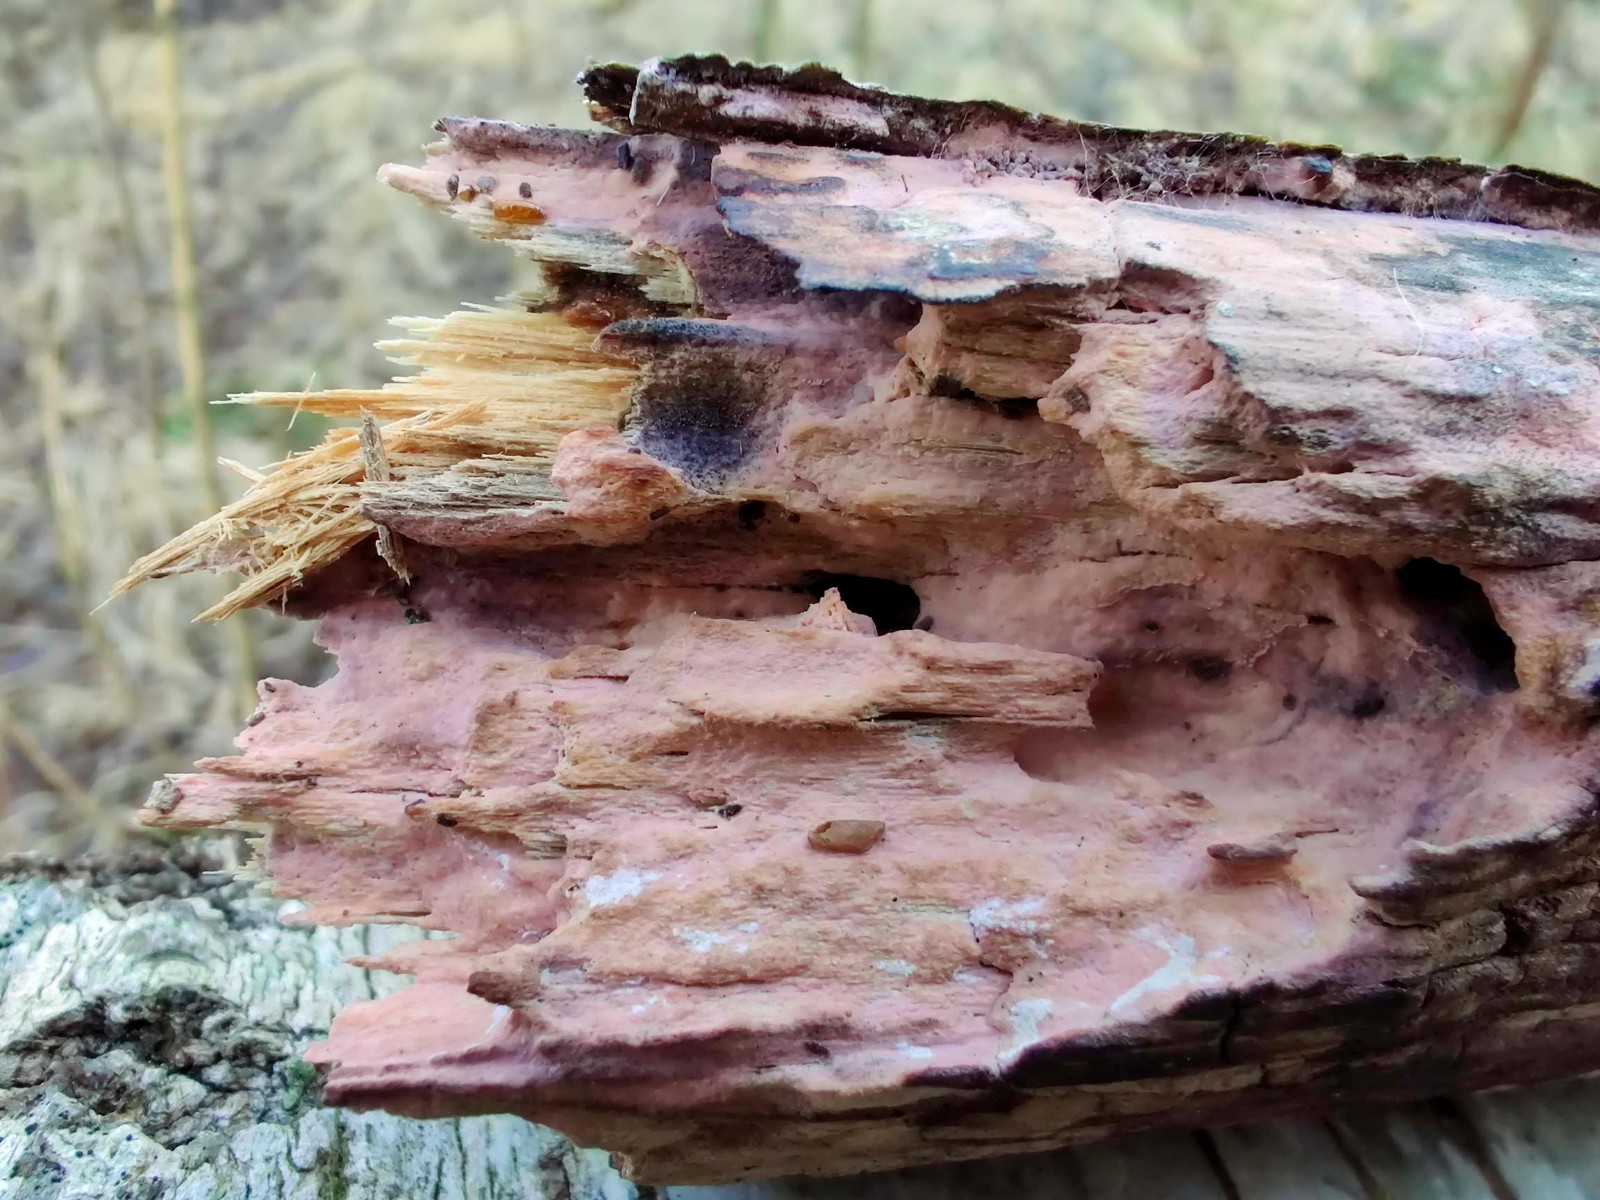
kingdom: Fungi
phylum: Basidiomycota
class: Agaricomycetes
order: Cantharellales
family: Tulasnellaceae
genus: Tulasnella
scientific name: Tulasnella violea
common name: violet ballonhinde
